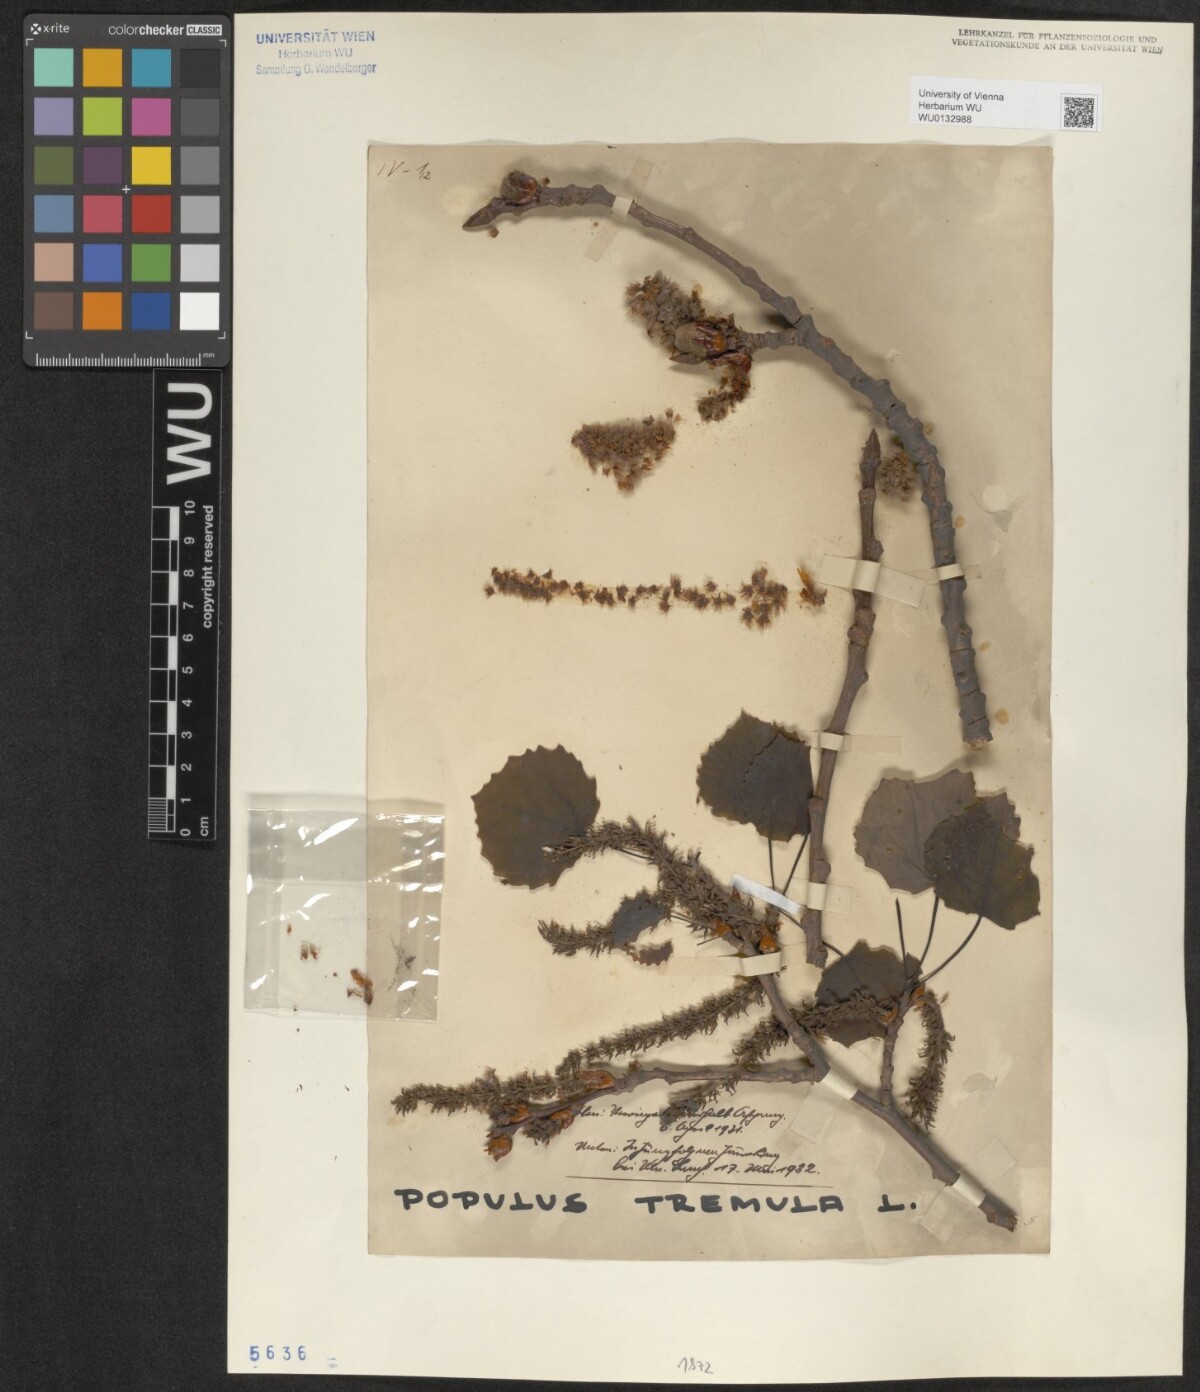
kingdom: Plantae
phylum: Tracheophyta
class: Magnoliopsida
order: Malpighiales
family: Salicaceae
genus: Populus
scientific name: Populus tremula
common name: European aspen
